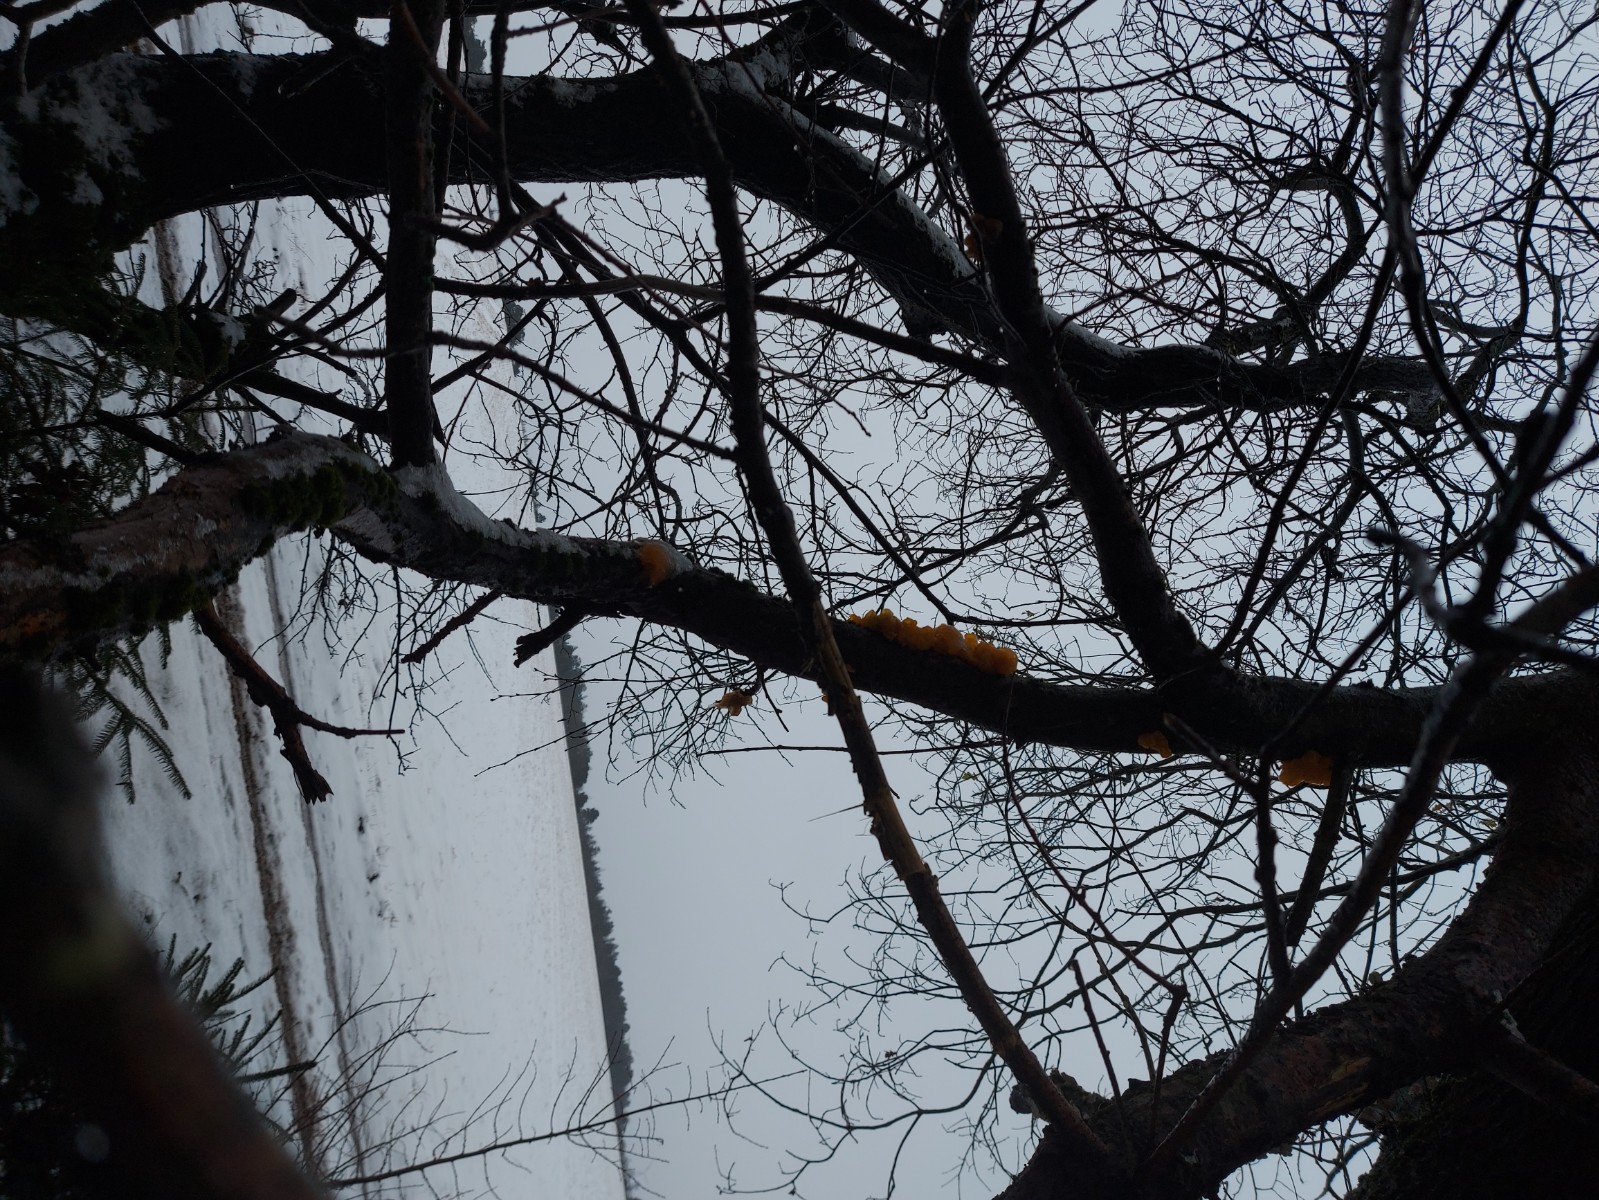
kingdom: Fungi
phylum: Basidiomycota
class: Tremellomycetes
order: Tremellales
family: Tremellaceae
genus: Tremella
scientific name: Tremella mesenterica
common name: gul bævresvamp
